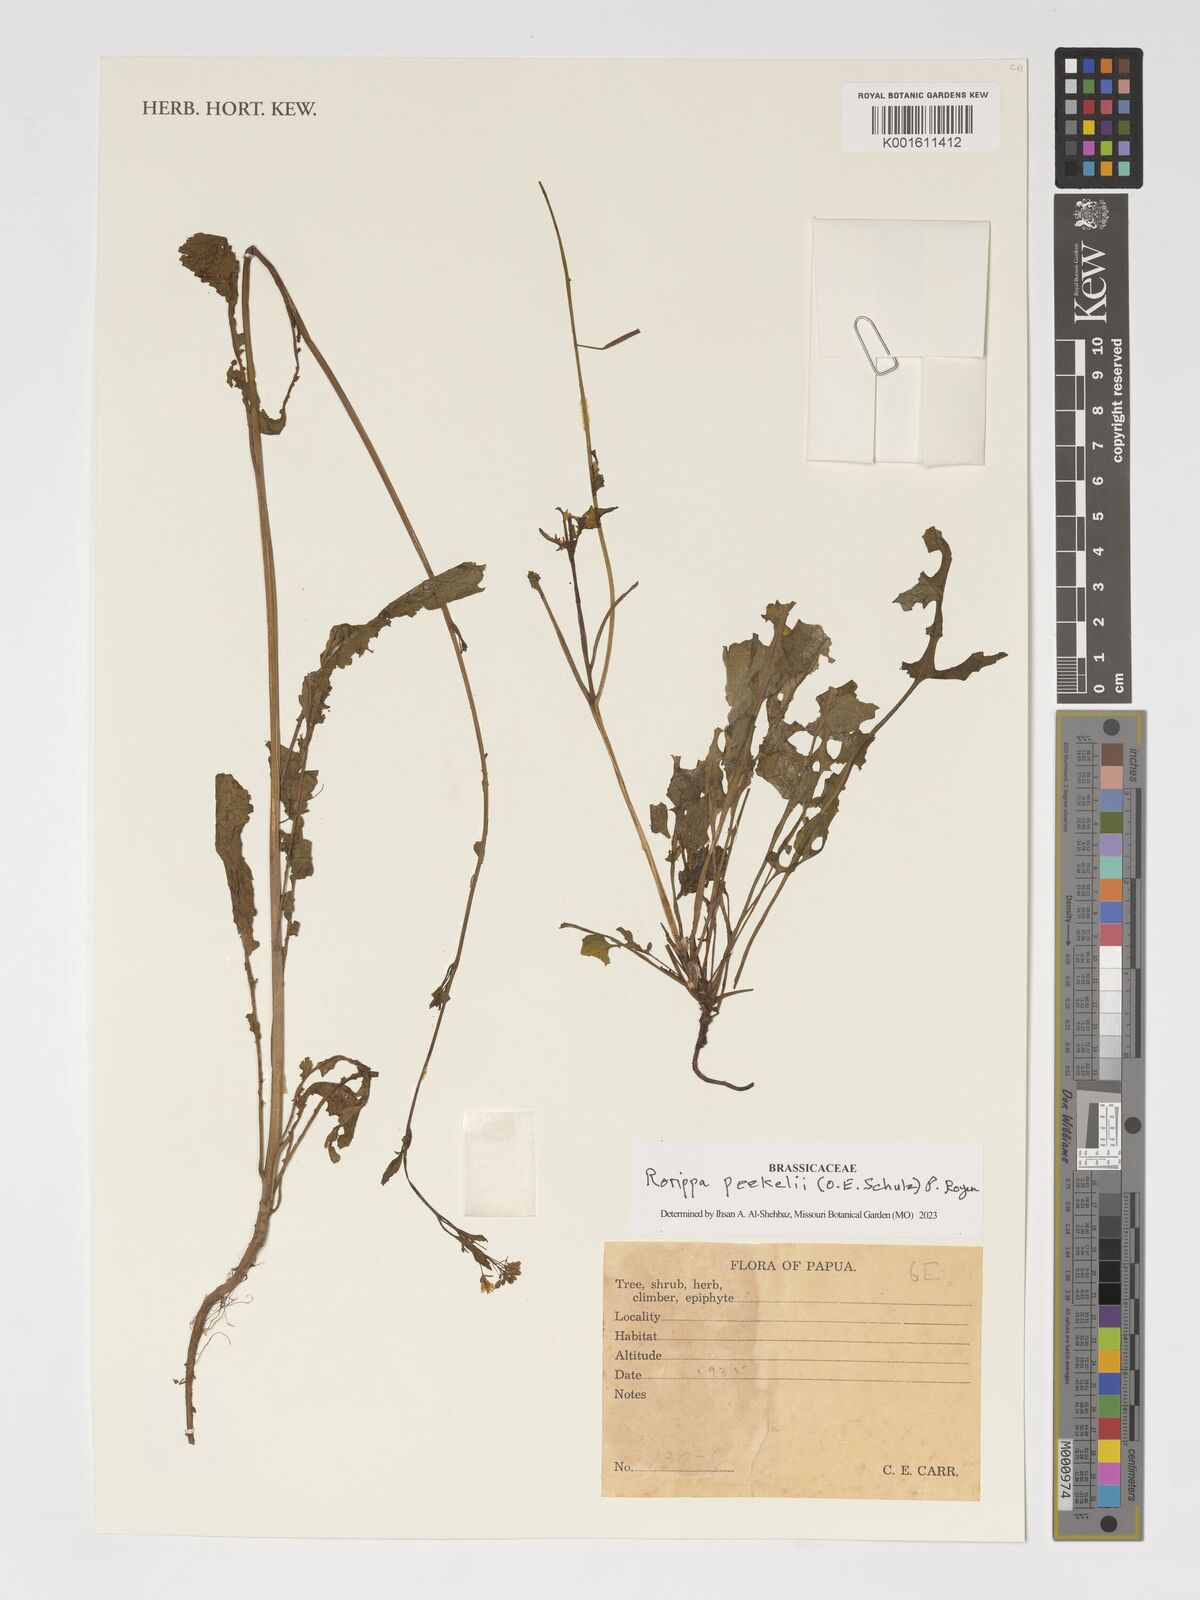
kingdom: Plantae
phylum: Tracheophyta
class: Magnoliopsida
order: Brassicales
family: Brassicaceae
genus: Rorippa
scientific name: Rorippa peekelii
